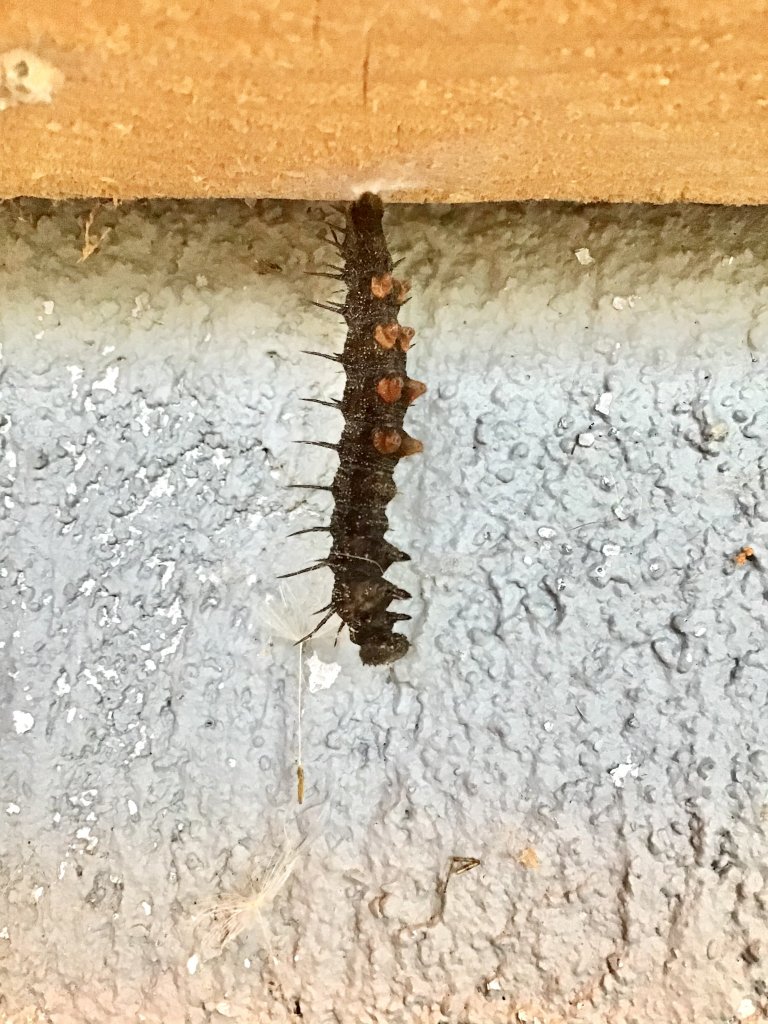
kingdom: Animalia
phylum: Arthropoda
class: Insecta
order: Lepidoptera
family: Nymphalidae
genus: Aglais
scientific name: Aglais io
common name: European Peacock
